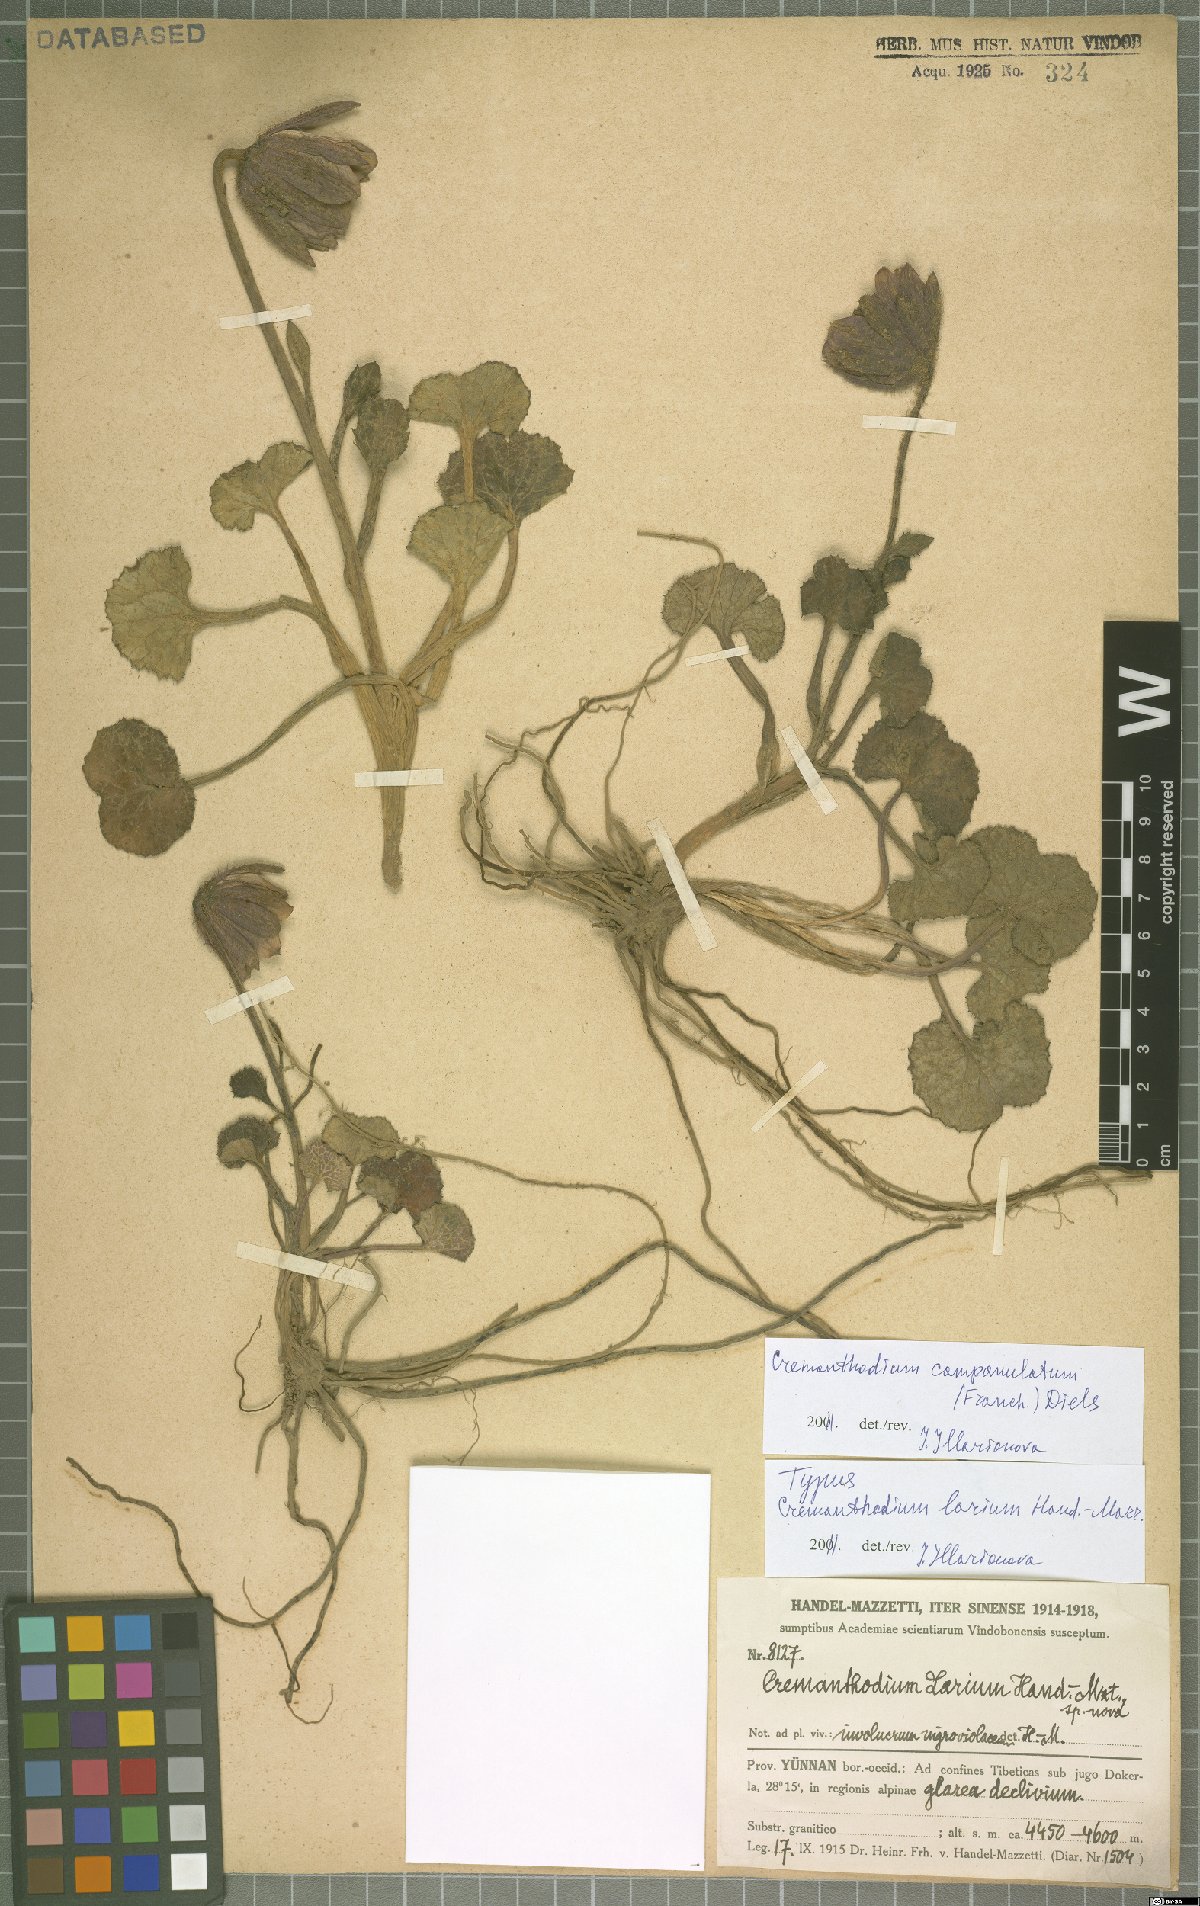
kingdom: Plantae
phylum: Tracheophyta
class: Magnoliopsida
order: Asterales
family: Asteraceae
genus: Cremanthodium
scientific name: Cremanthodium campanulatum
